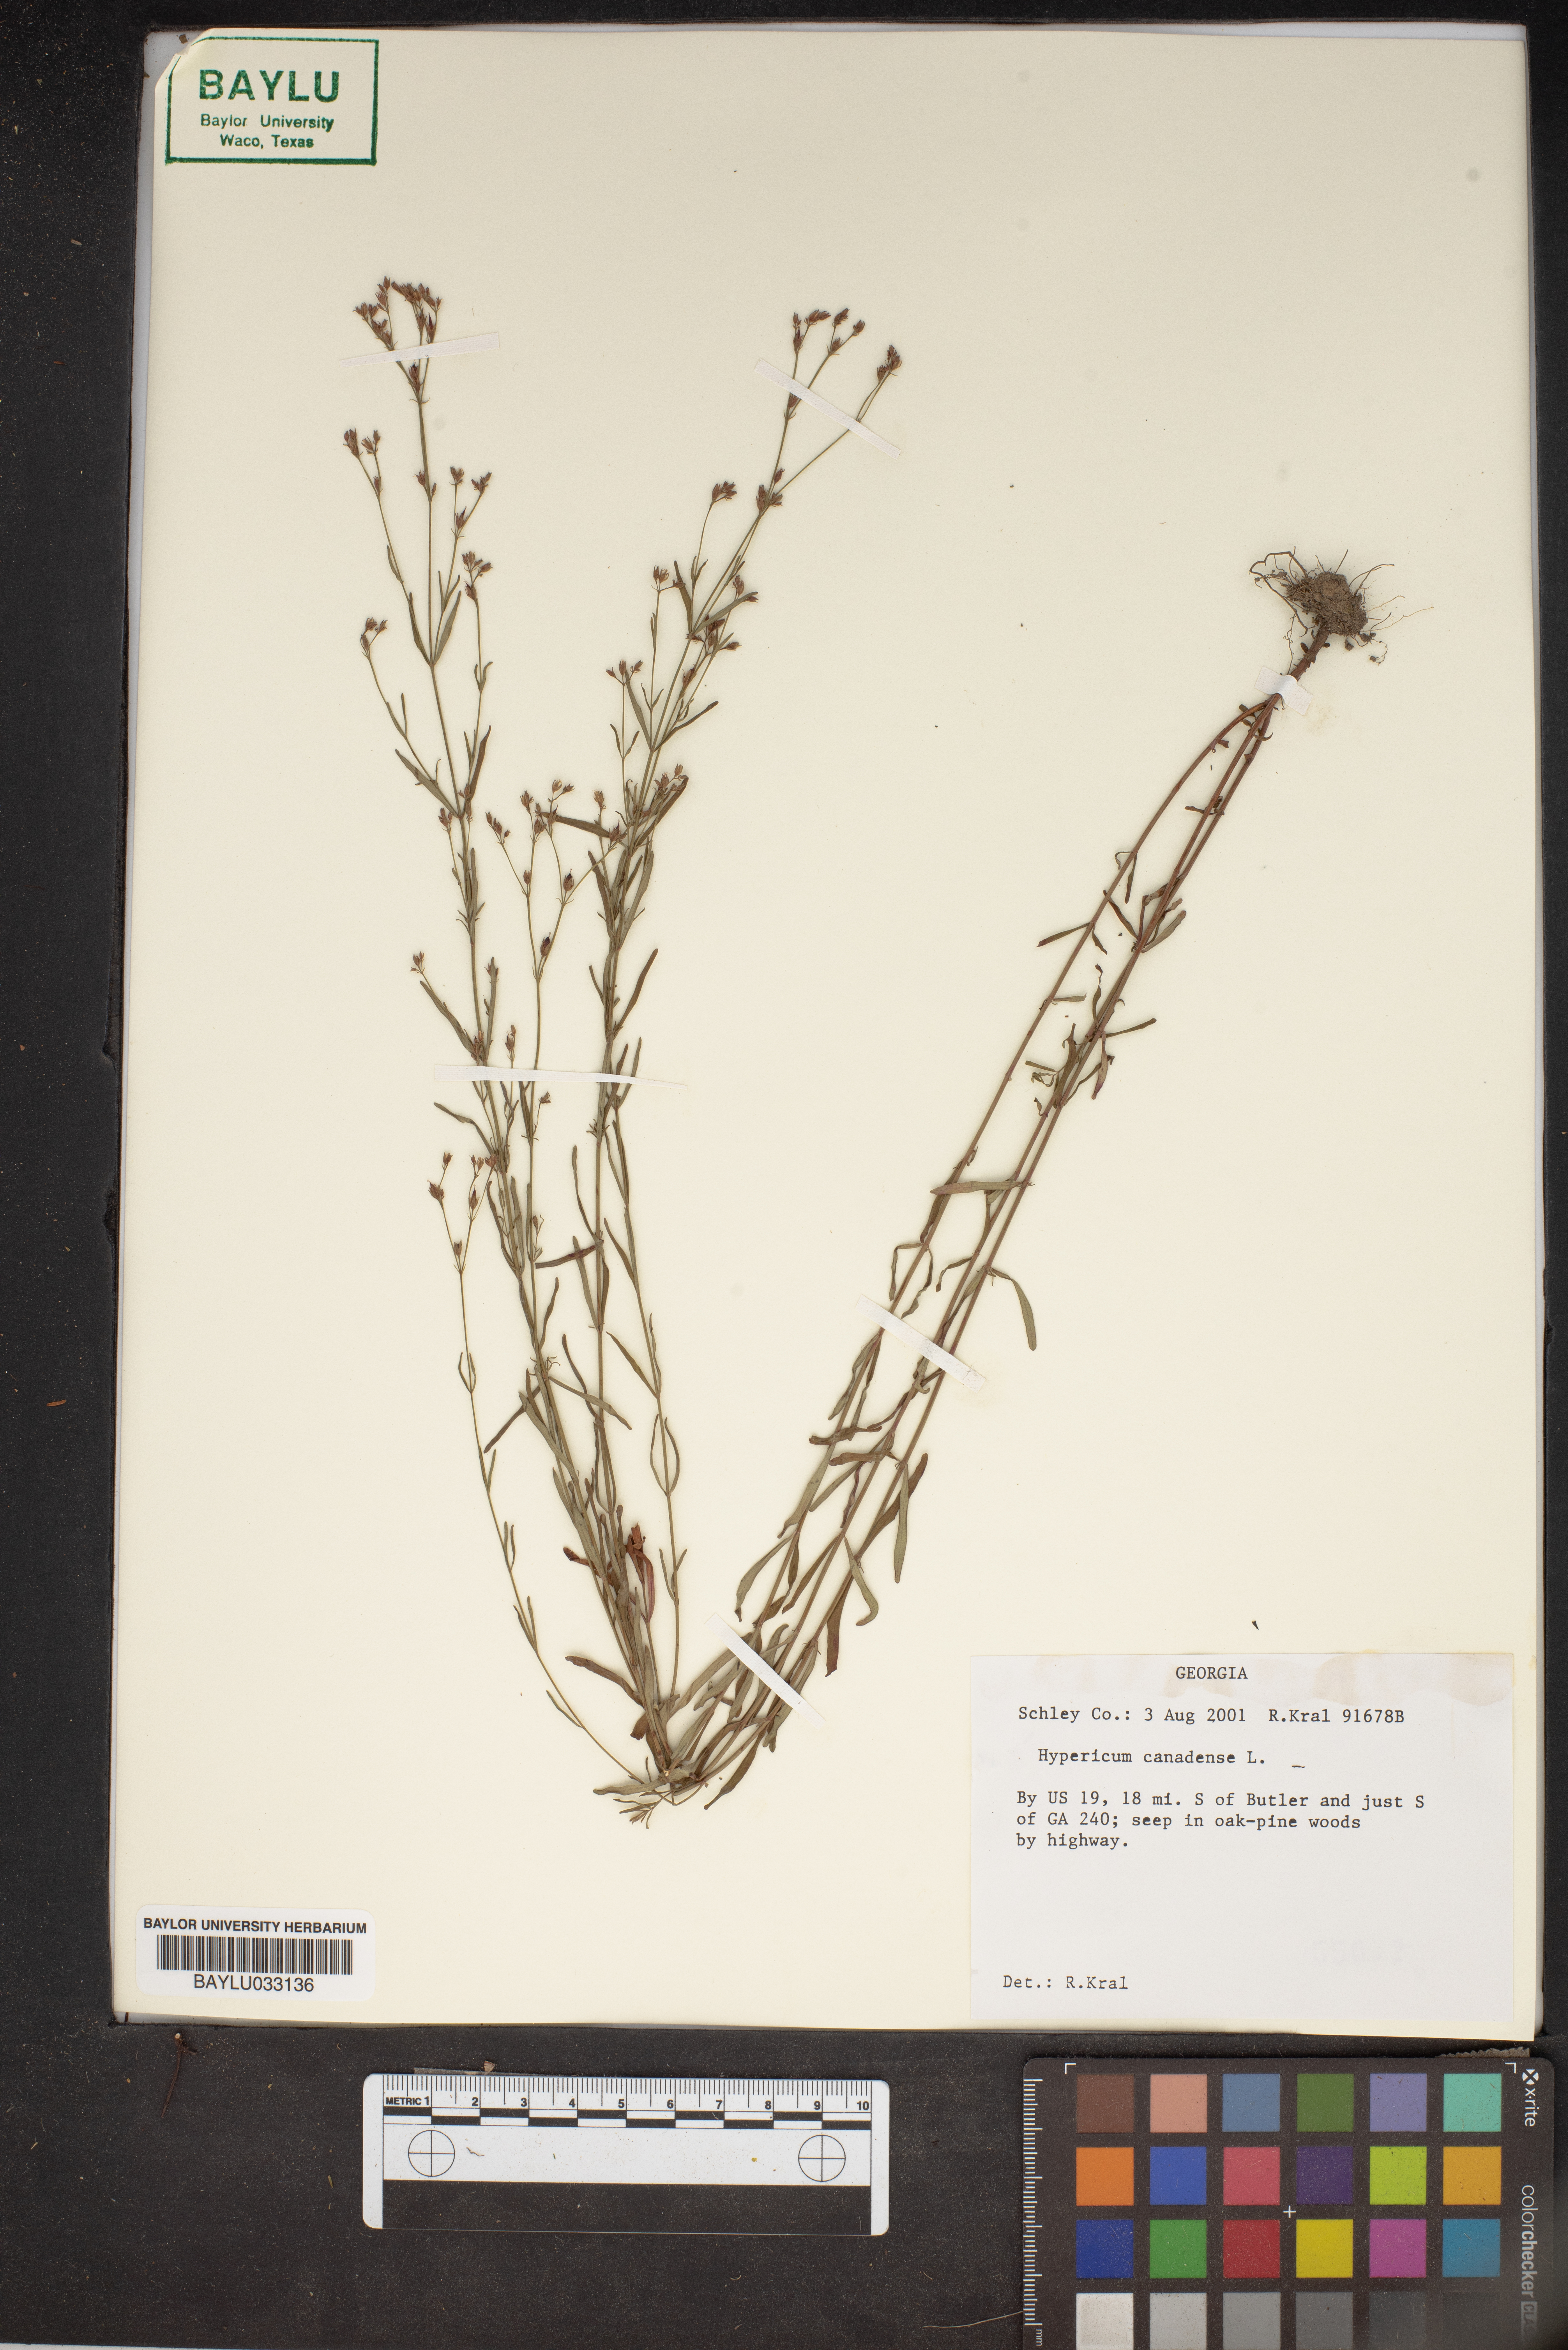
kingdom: Plantae
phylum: Tracheophyta
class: Magnoliopsida
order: Malpighiales
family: Hypericaceae
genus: Hypericum
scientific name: Hypericum canadense
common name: Irish st. john's-wort
